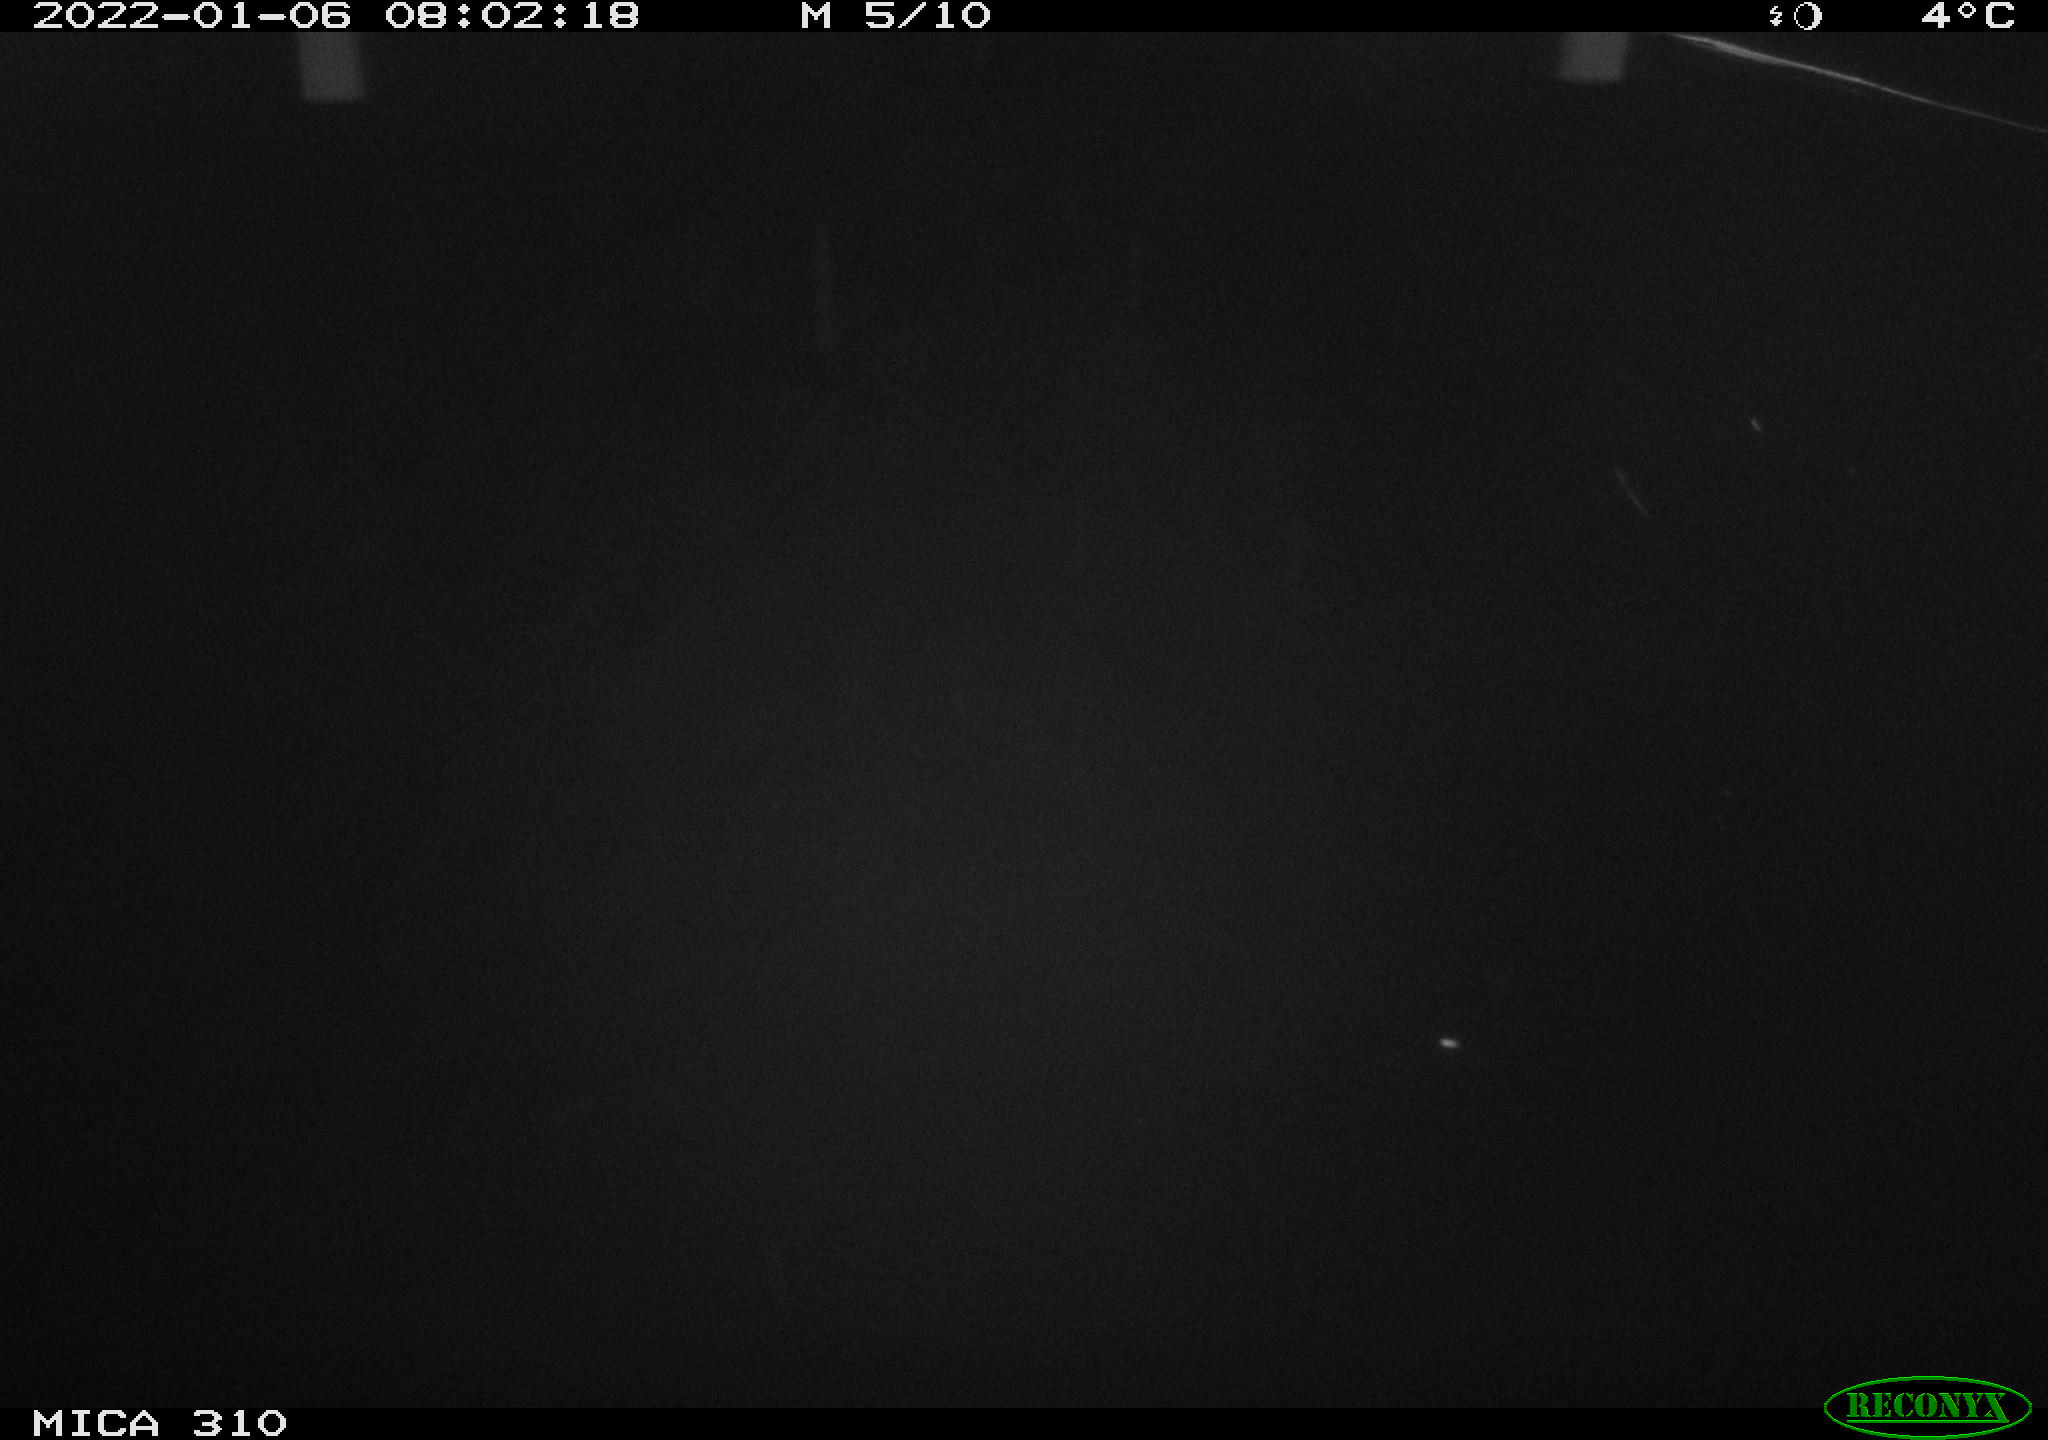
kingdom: Animalia
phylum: Chordata
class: Aves
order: Gruiformes
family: Rallidae
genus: Fulica
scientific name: Fulica atra
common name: Eurasian coot
